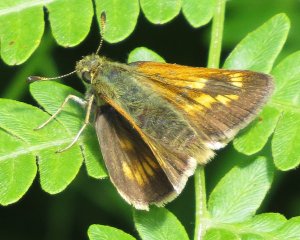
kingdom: Animalia
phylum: Arthropoda
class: Insecta
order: Lepidoptera
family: Hesperiidae
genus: Polites
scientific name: Polites
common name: Long Dash Skipper
